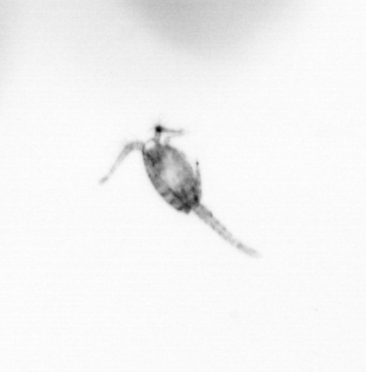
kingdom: Animalia
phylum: Arthropoda
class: Copepoda
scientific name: Copepoda
